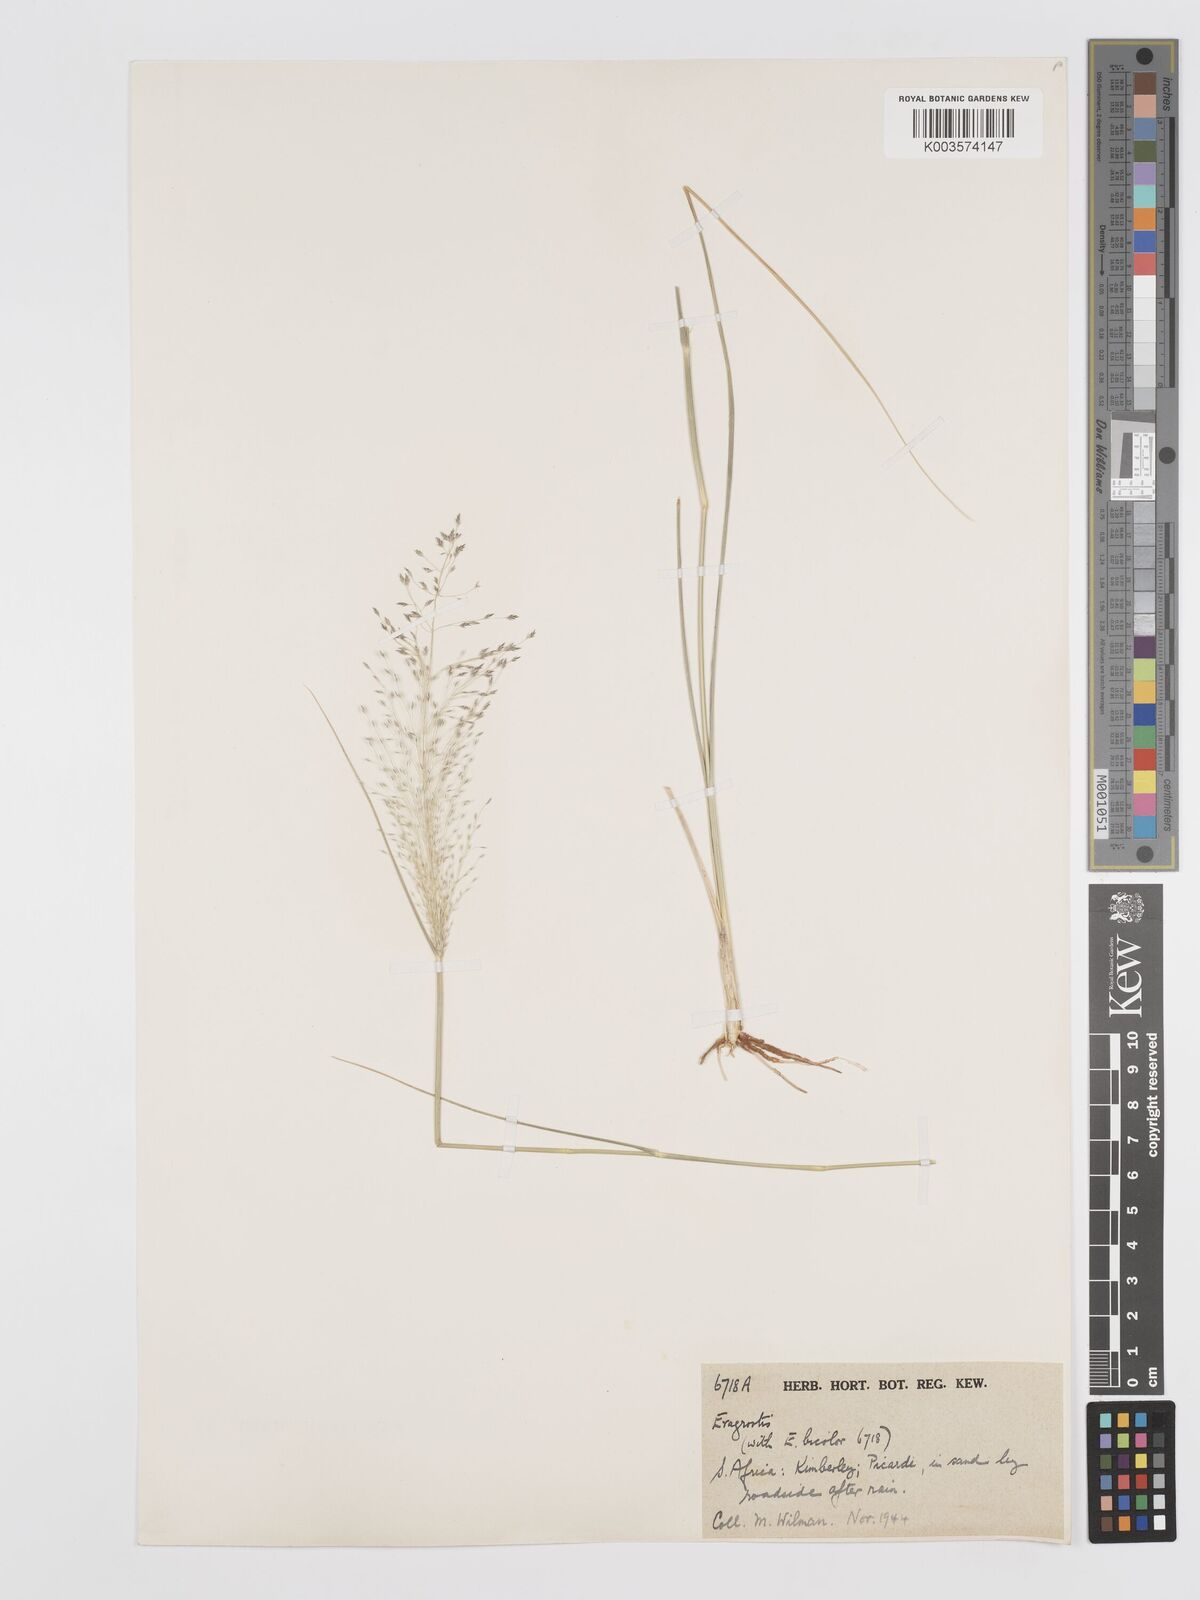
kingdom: Plantae
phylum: Tracheophyta
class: Liliopsida
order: Poales
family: Poaceae
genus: Eragrostis
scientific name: Eragrostis cylindriflora
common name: Cylinderflower lovegrass
